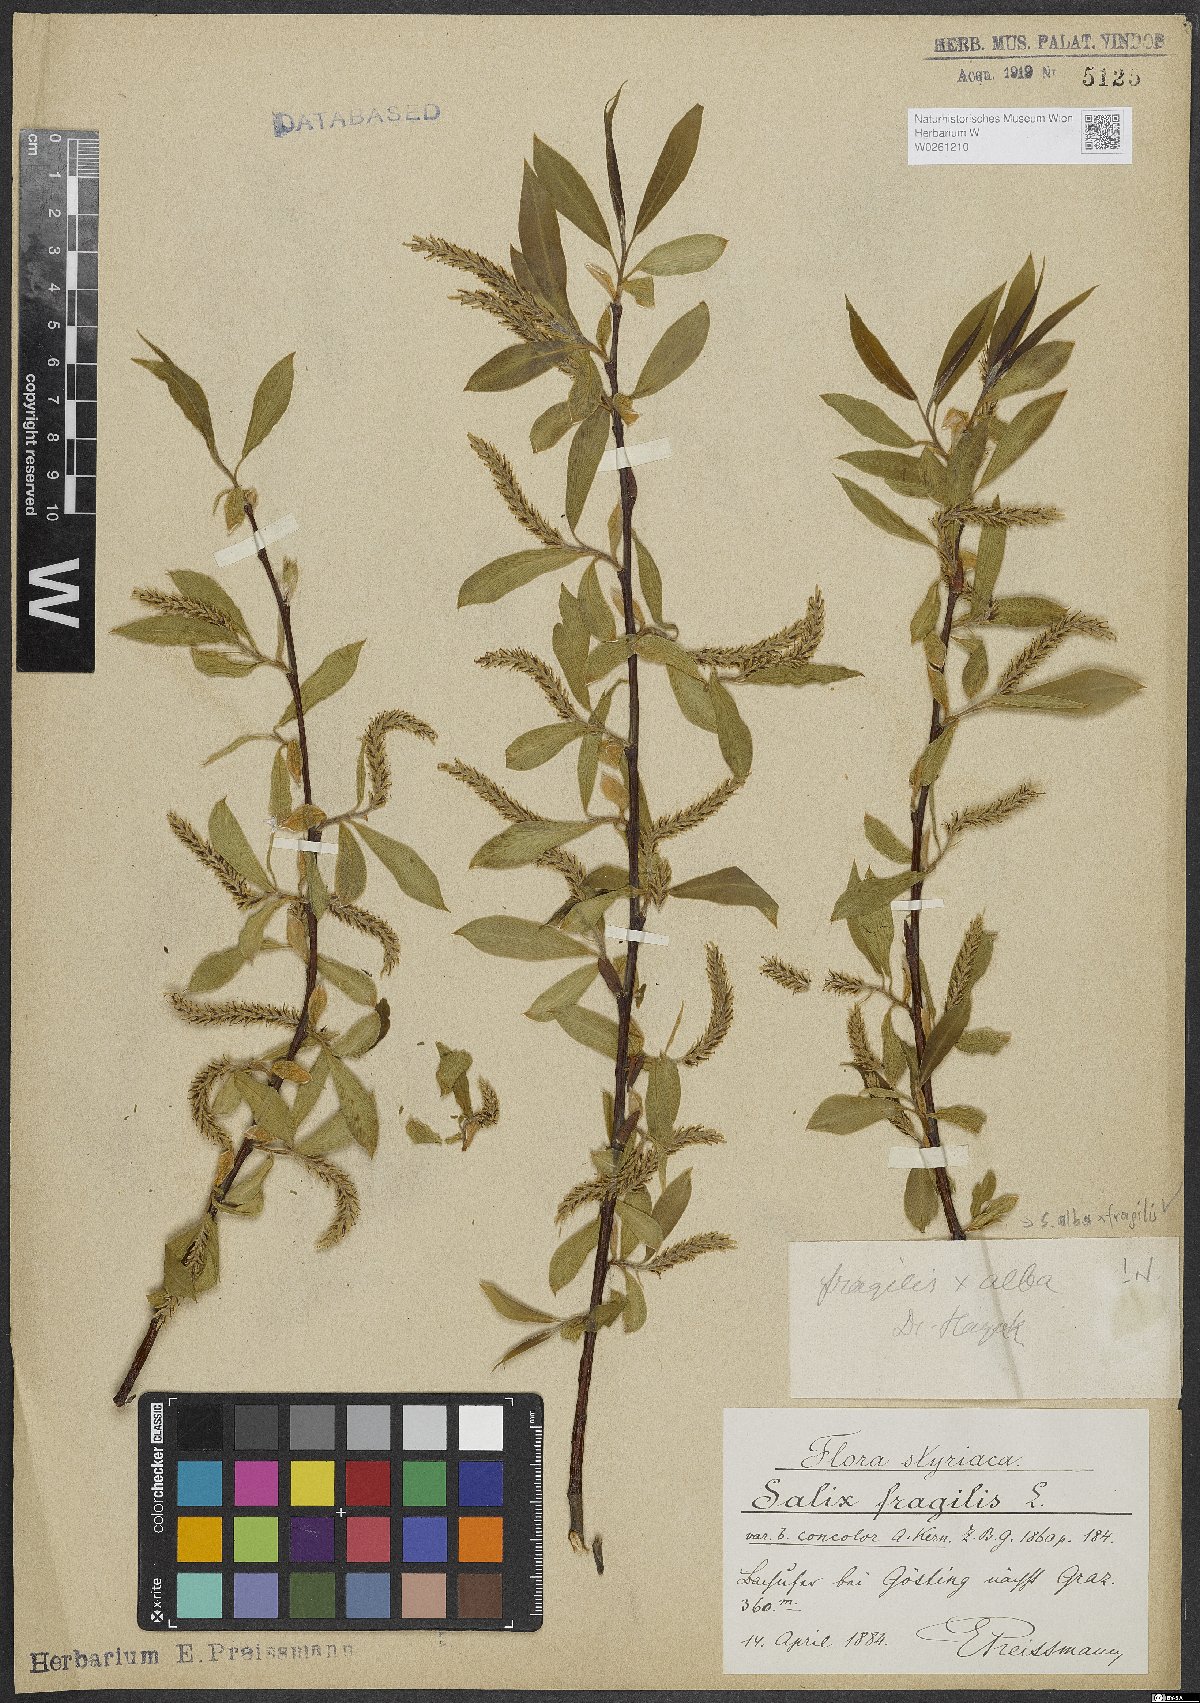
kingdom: Plantae
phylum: Tracheophyta
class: Magnoliopsida
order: Malpighiales
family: Salicaceae
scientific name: Salicaceae
